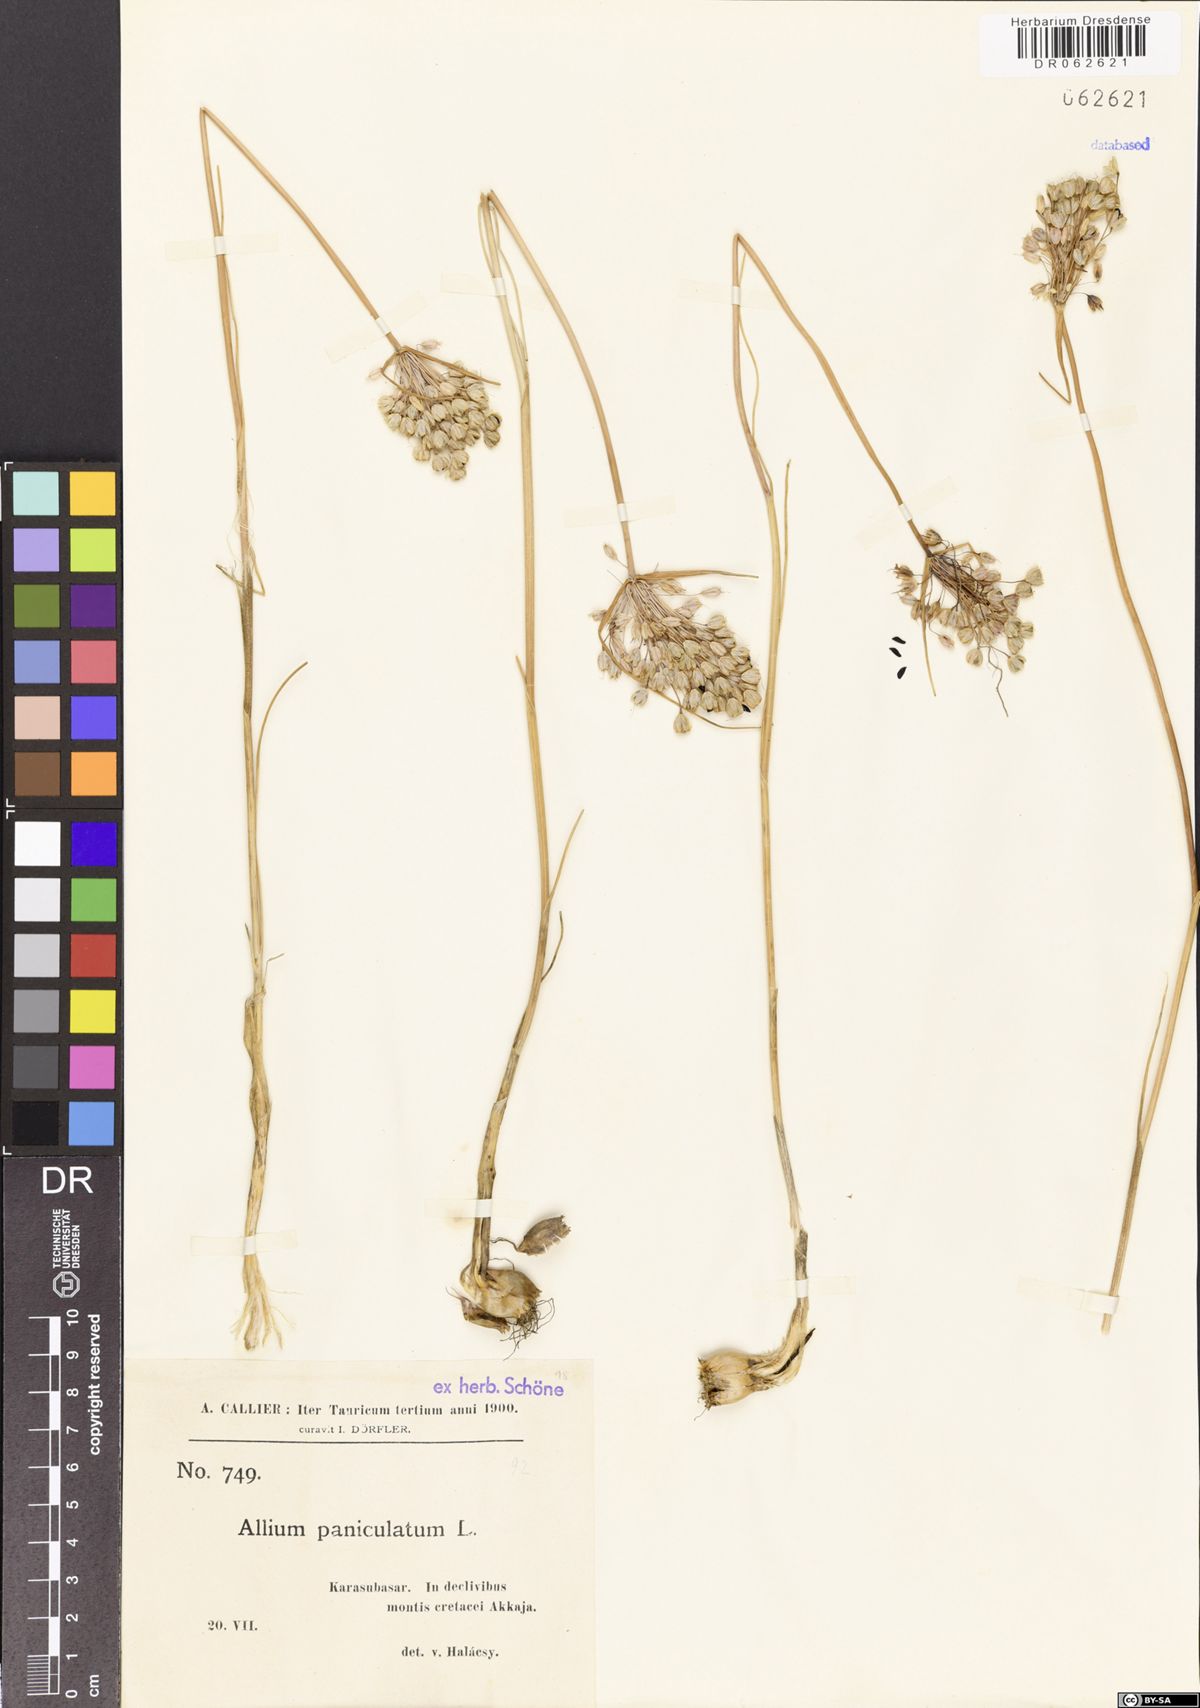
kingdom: Plantae
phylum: Tracheophyta
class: Liliopsida
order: Asparagales
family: Amaryllidaceae
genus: Allium
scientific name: Allium paniculatum
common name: Pale garlic
